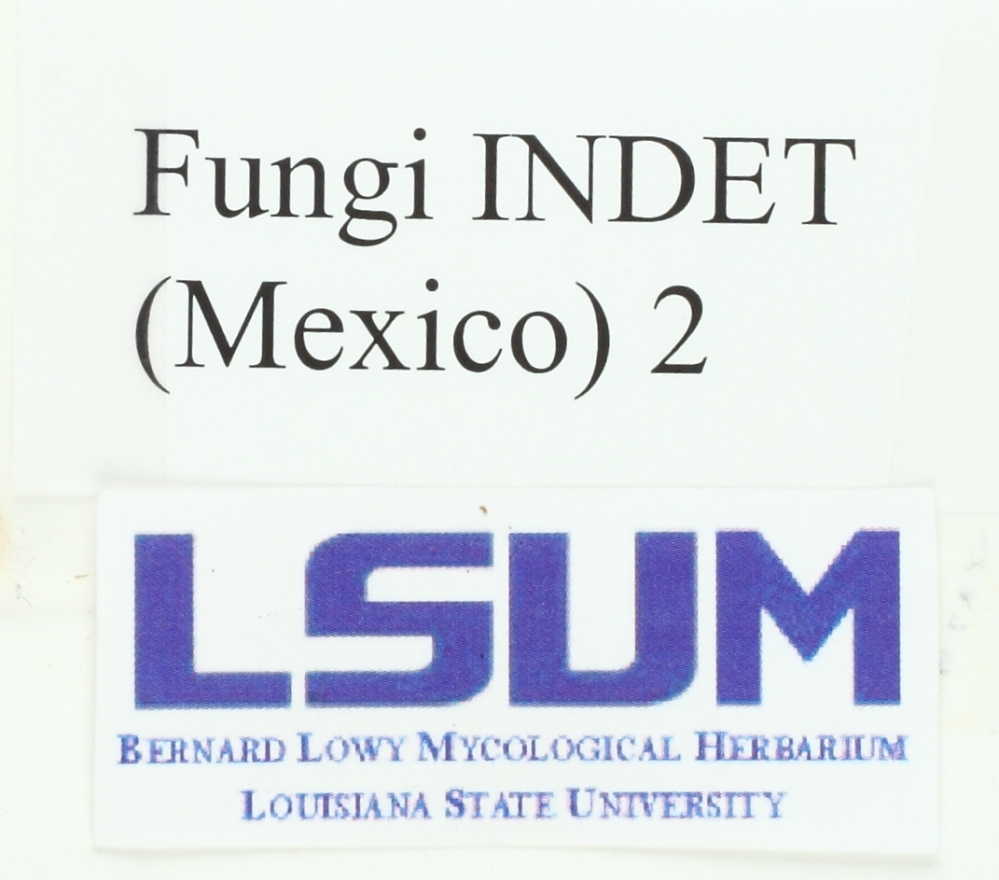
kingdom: Fungi
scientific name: Fungi
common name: Fungi
